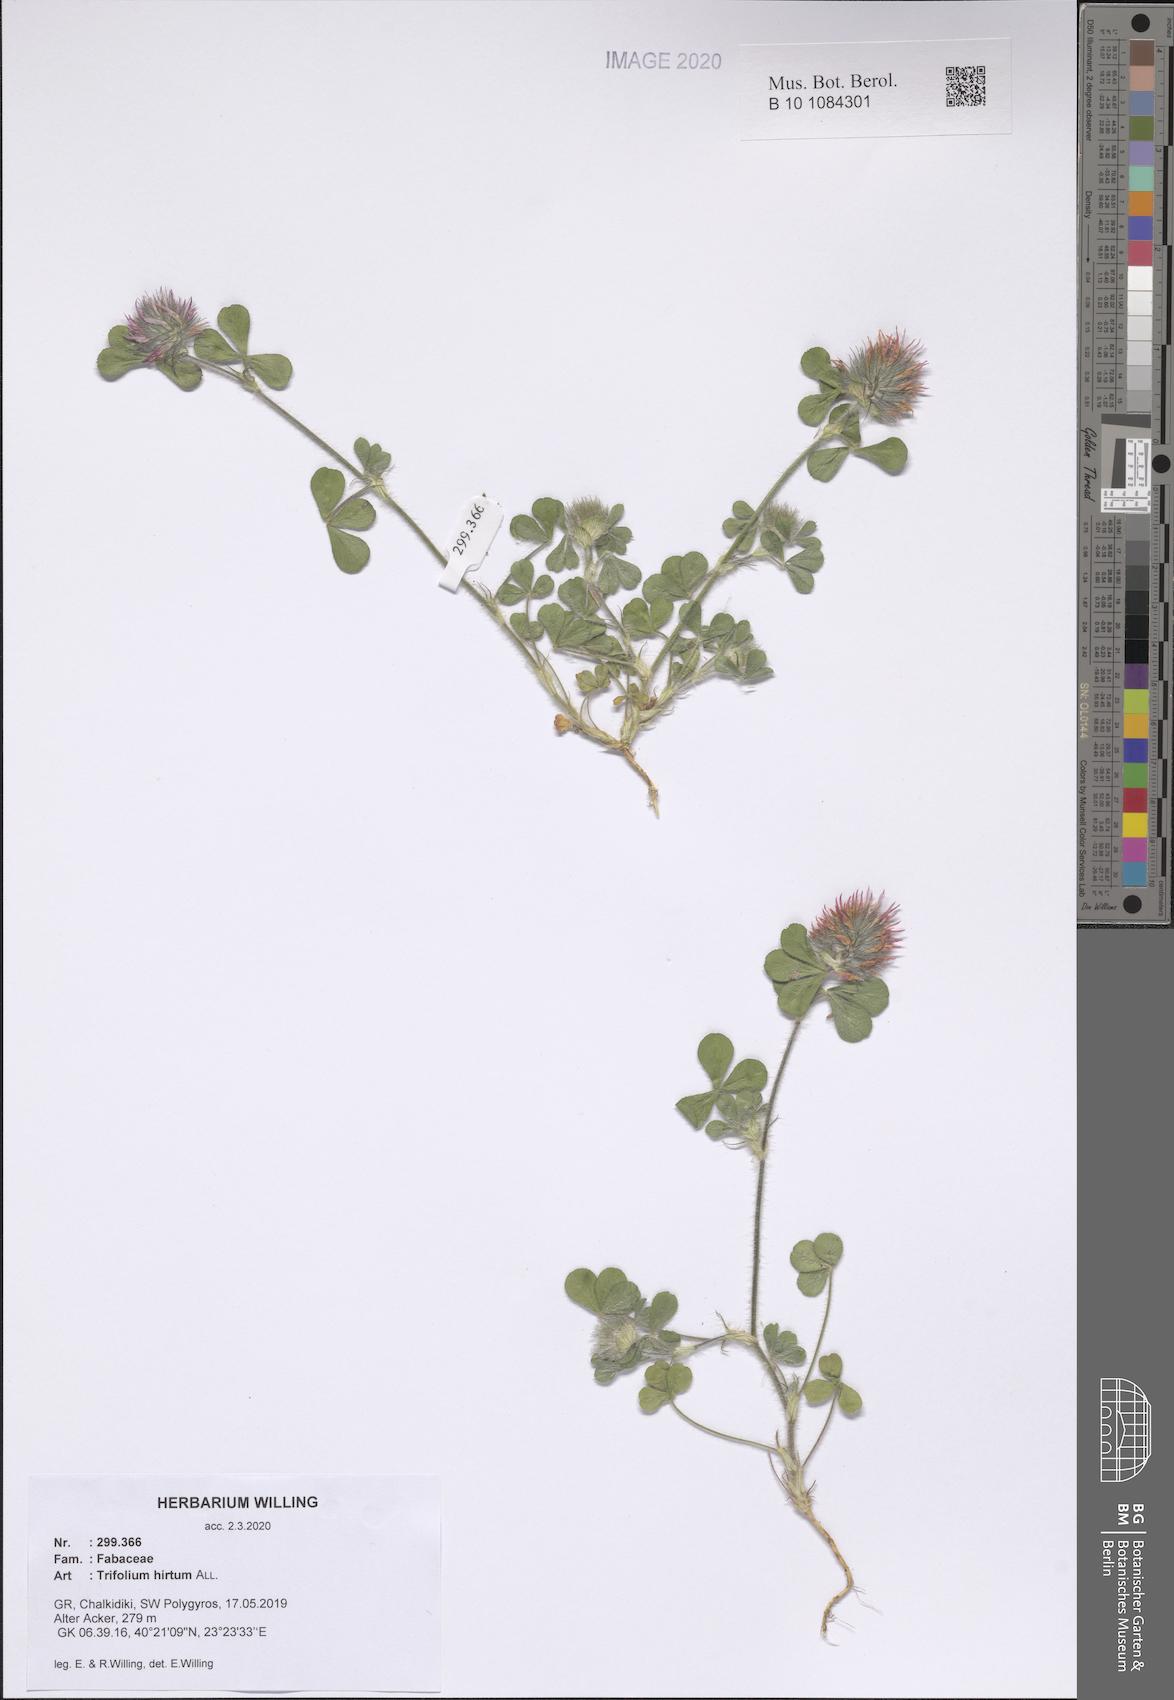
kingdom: Plantae
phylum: Tracheophyta
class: Magnoliopsida
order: Fabales
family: Fabaceae
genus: Trifolium
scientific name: Trifolium hirtum
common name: Rose clover
